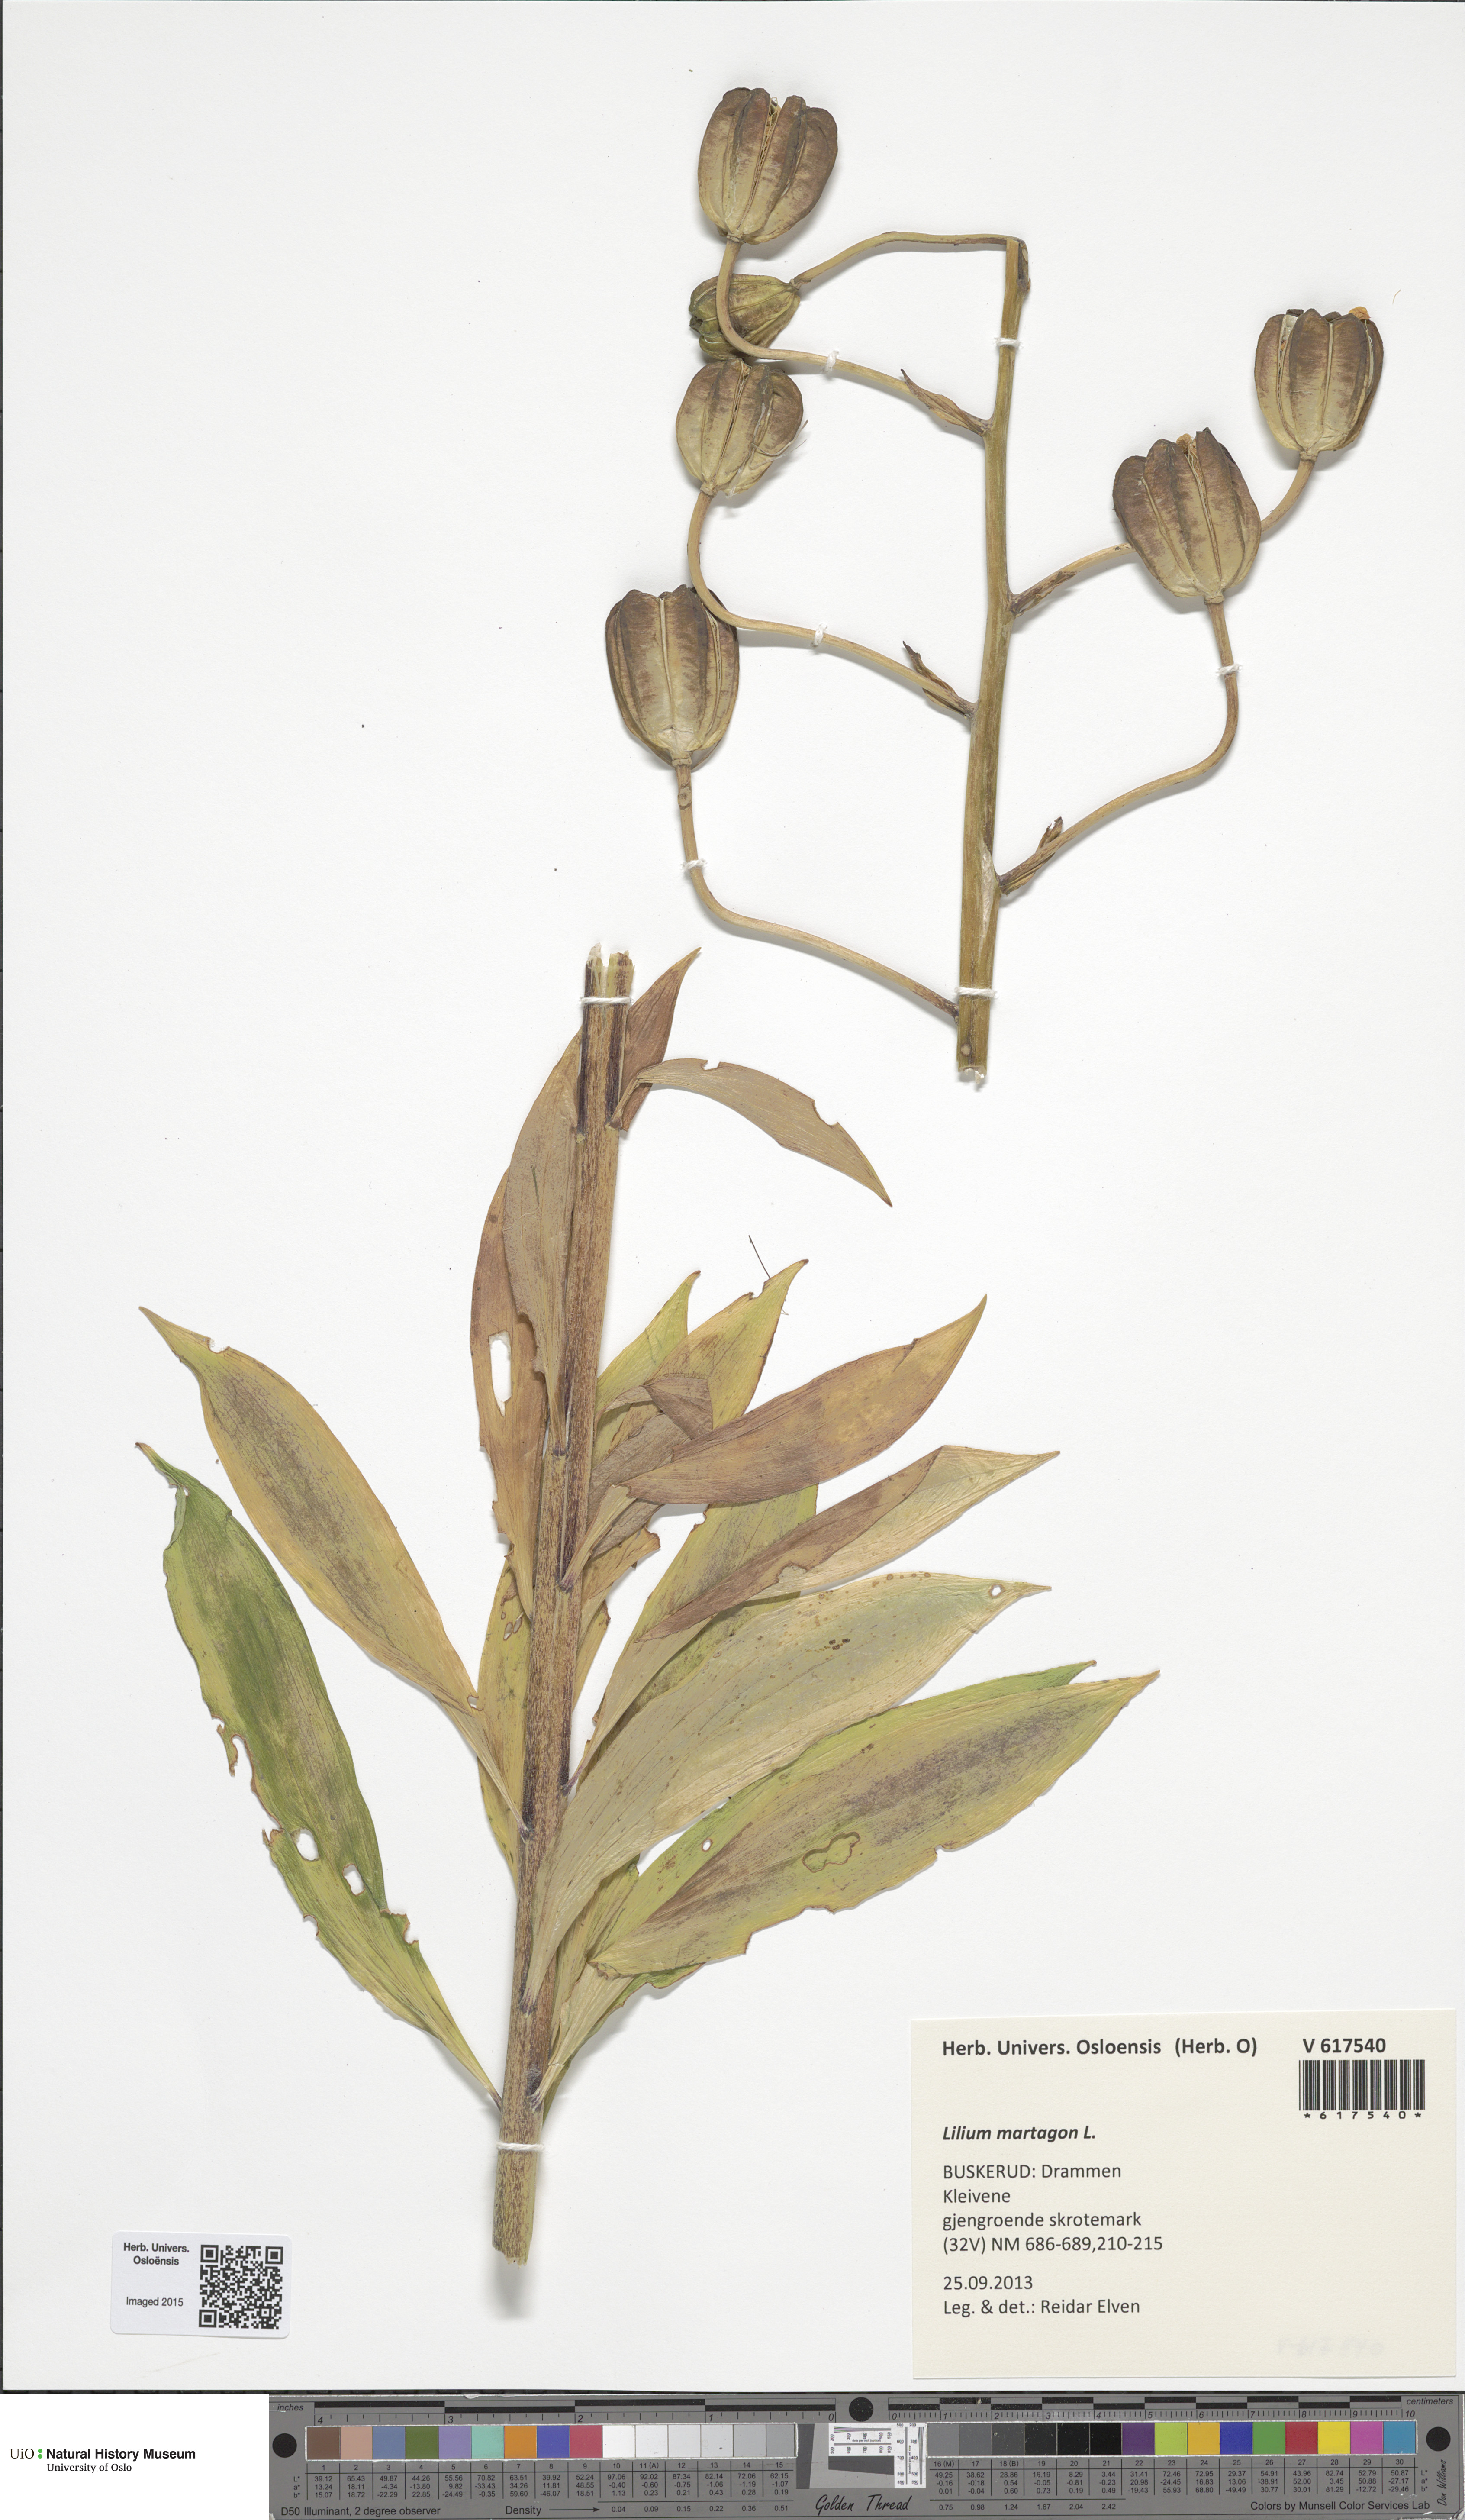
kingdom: Plantae
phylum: Tracheophyta
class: Liliopsida
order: Liliales
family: Liliaceae
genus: Lilium
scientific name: Lilium martagon
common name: Martagon lily
